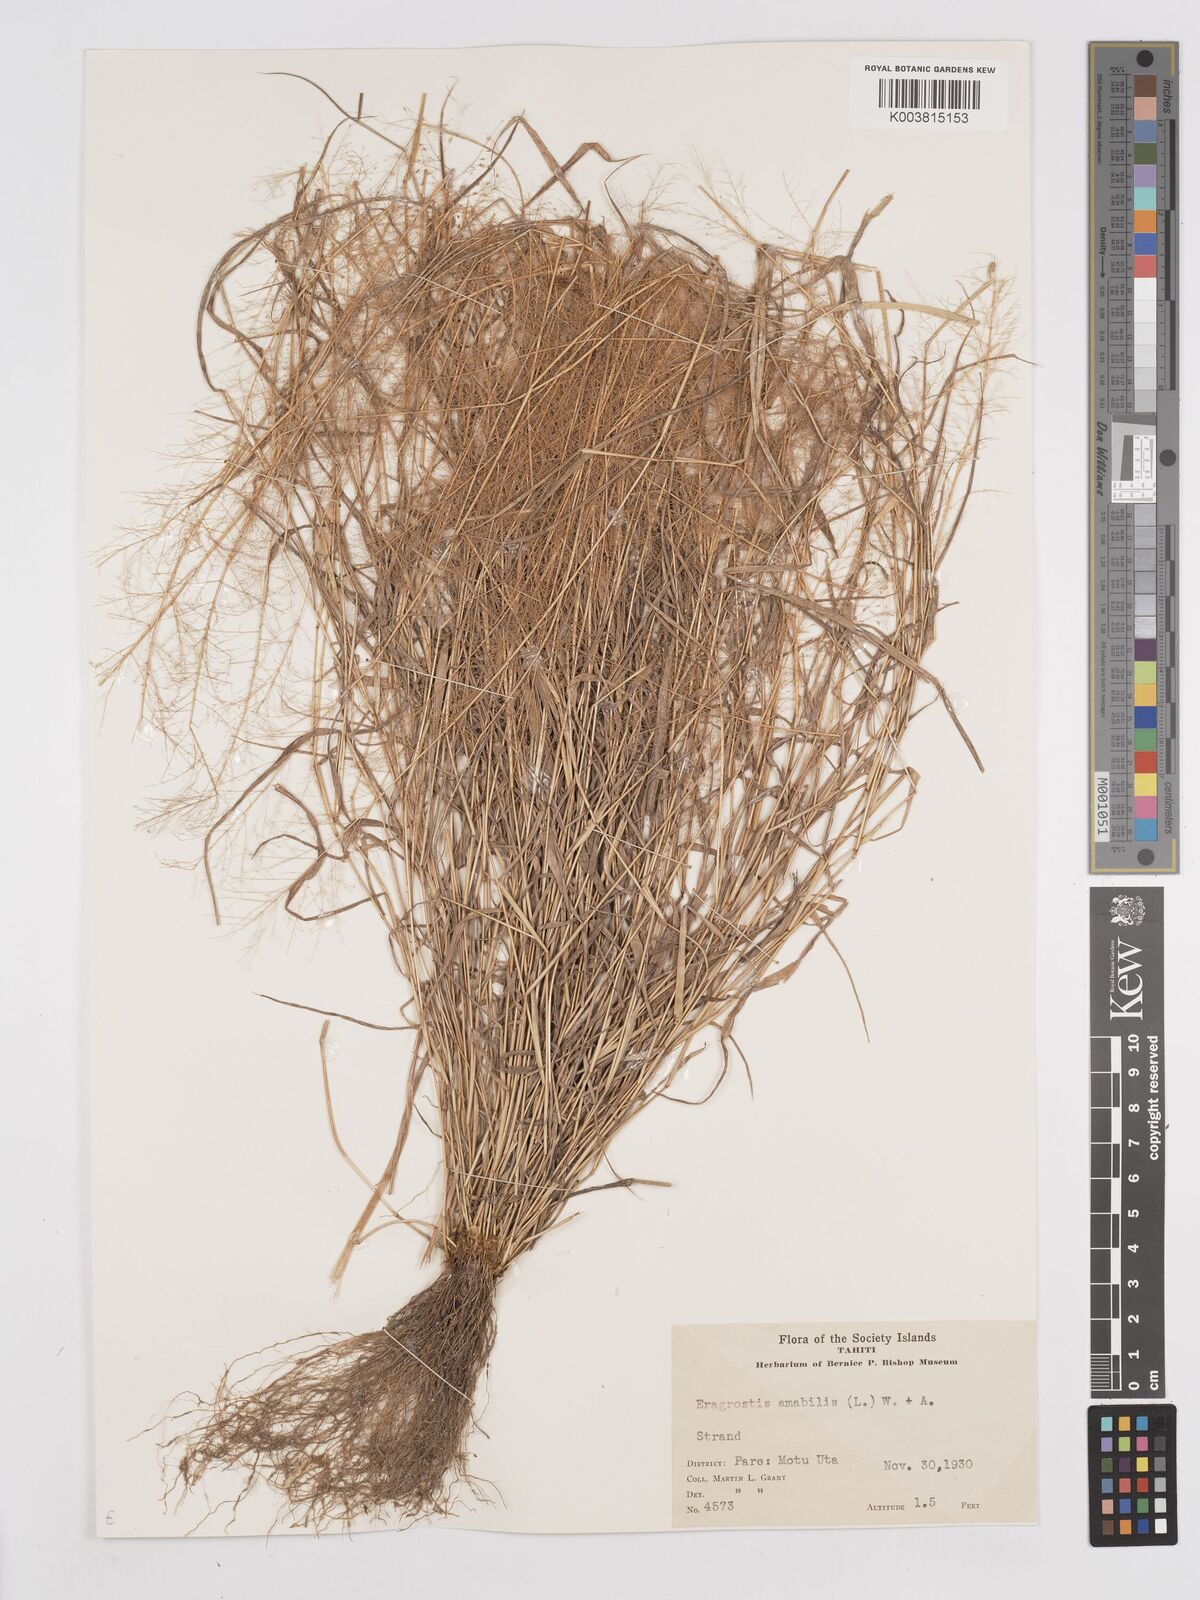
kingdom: Plantae
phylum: Tracheophyta
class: Liliopsida
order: Poales
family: Poaceae
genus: Eragrostis
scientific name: Eragrostis tenella
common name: Japanese lovegrass
